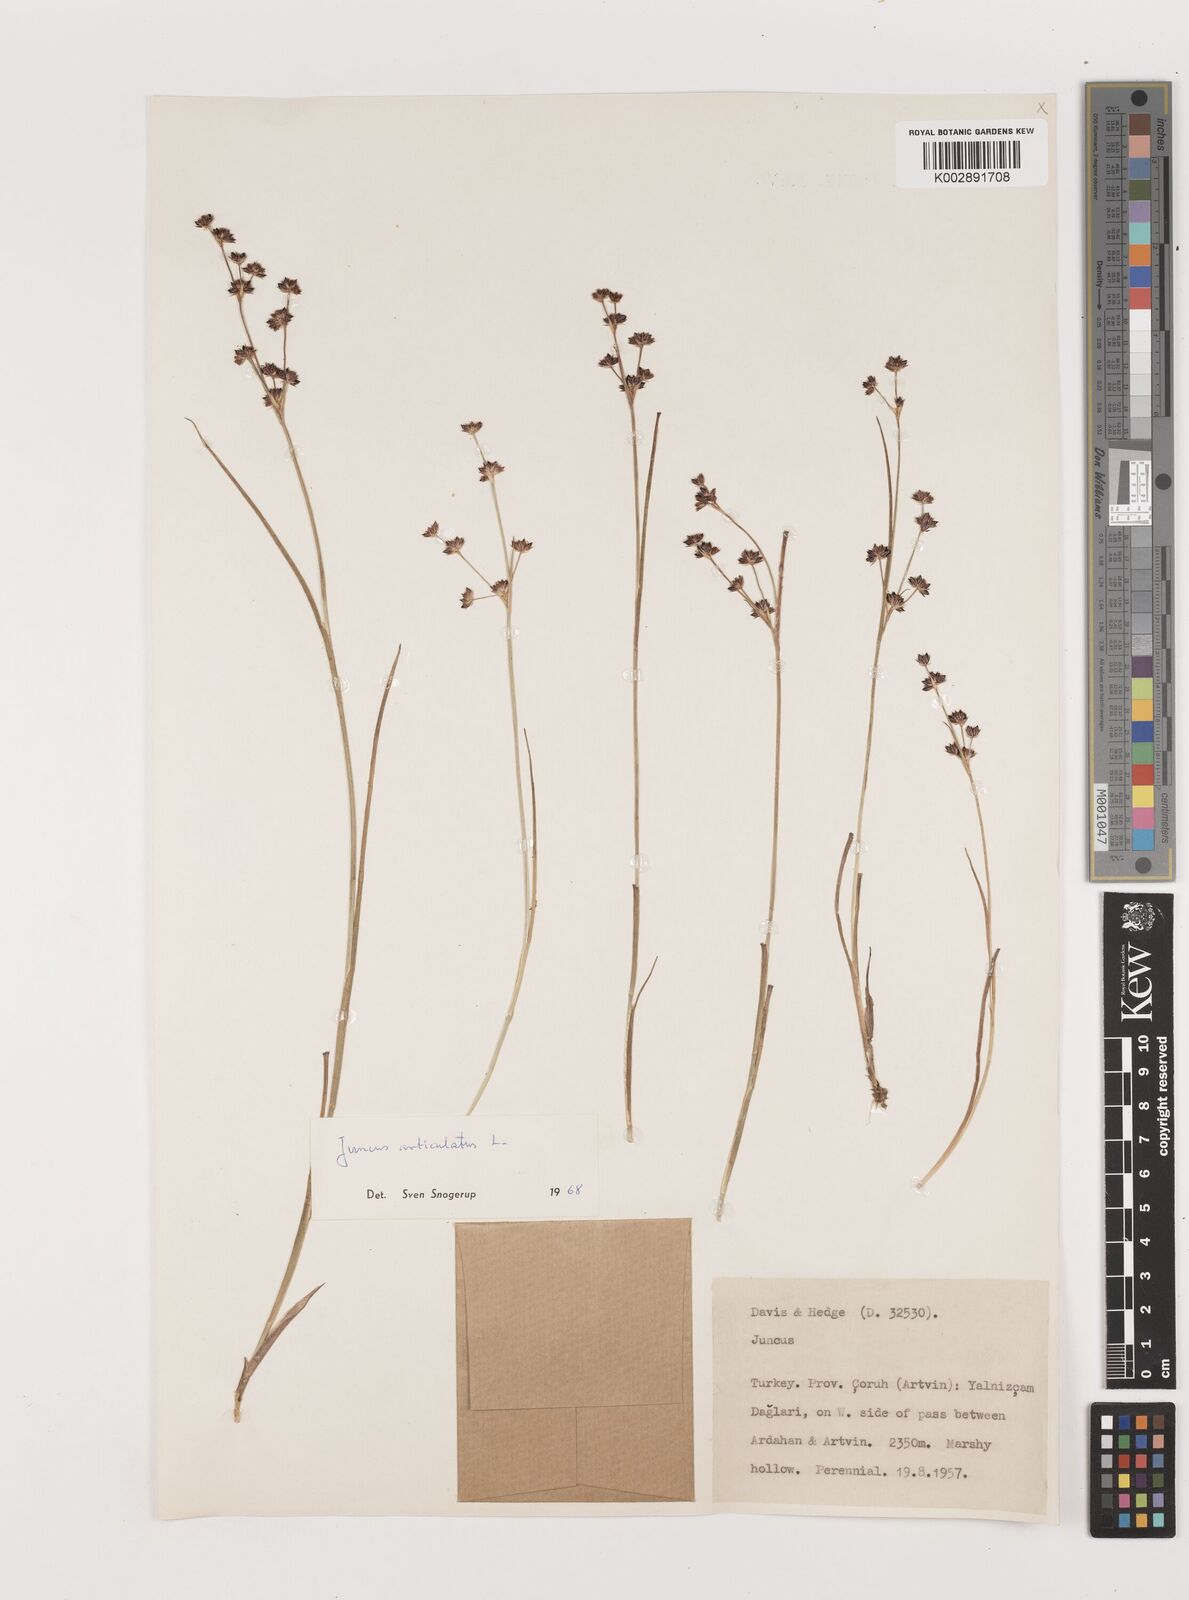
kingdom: Plantae
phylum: Tracheophyta
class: Liliopsida
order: Poales
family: Juncaceae
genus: Juncus
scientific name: Juncus articulatus
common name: Jointed rush
